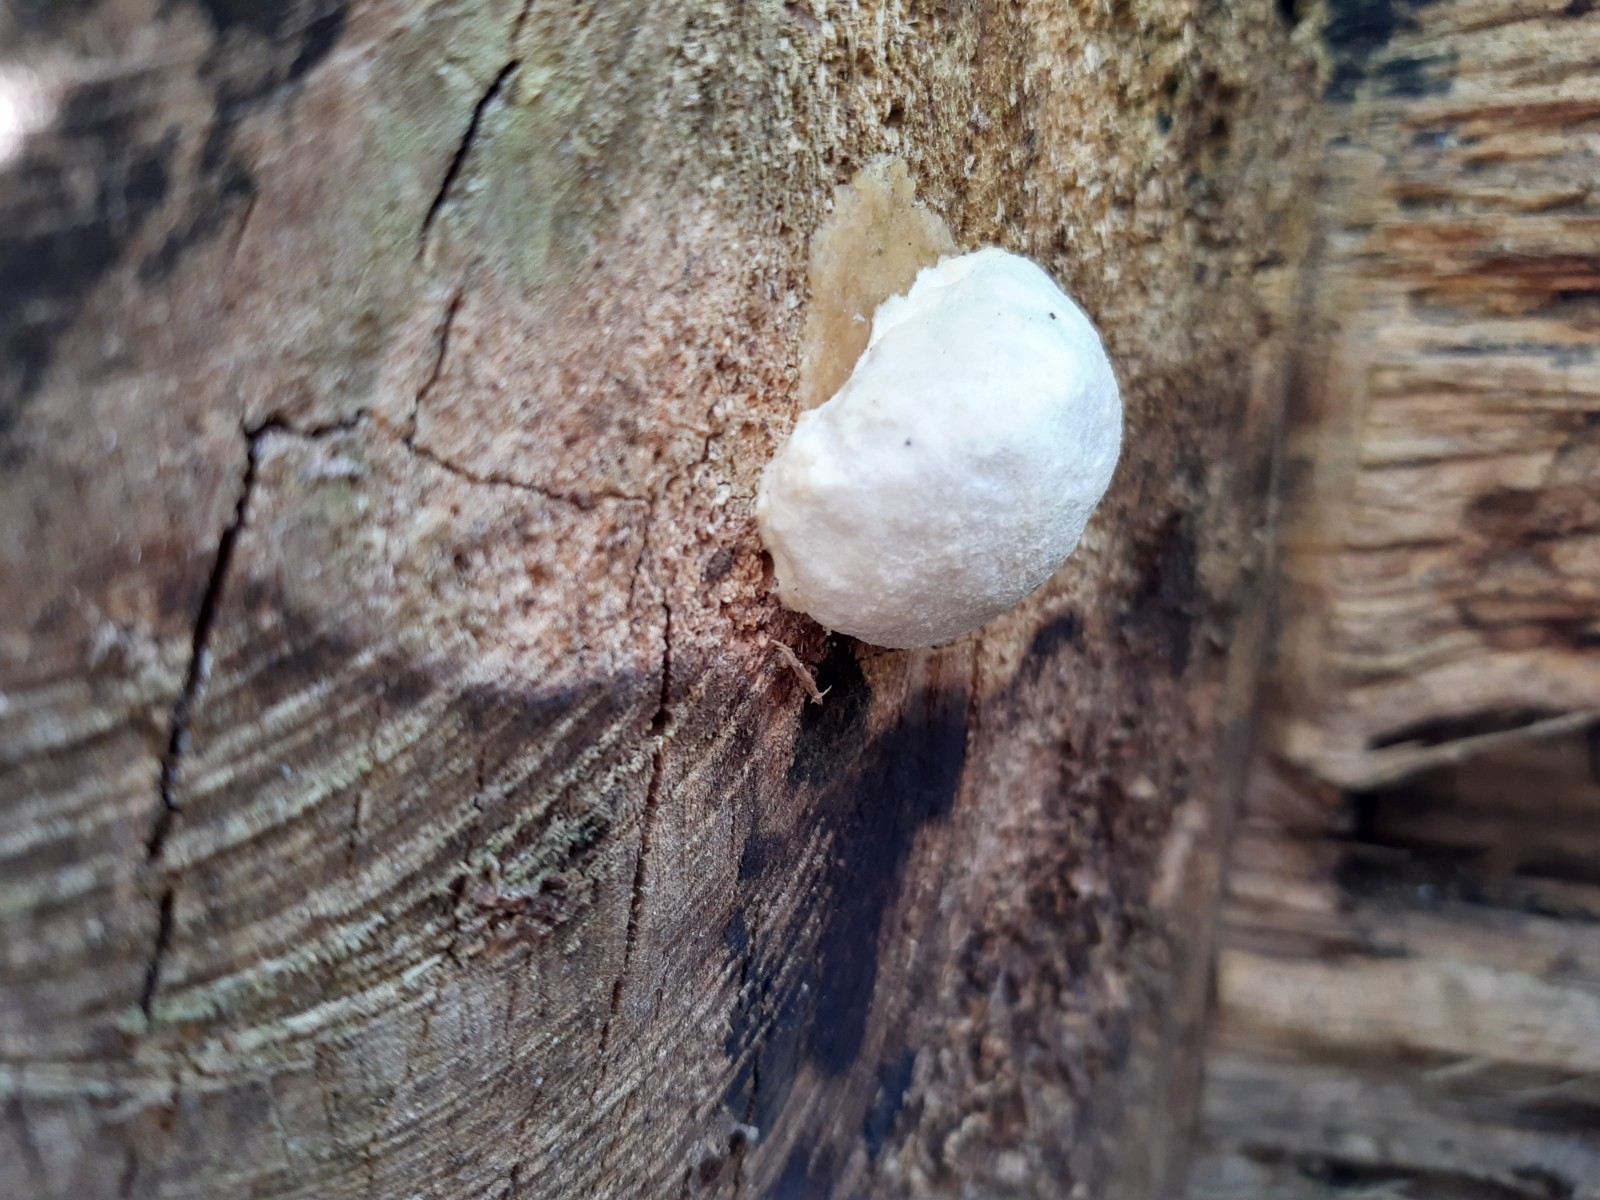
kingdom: Protozoa
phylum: Mycetozoa
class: Myxomycetes
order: Cribrariales
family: Tubiferaceae
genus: Reticularia
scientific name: Reticularia lycoperdon
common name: skinnende støvpude
